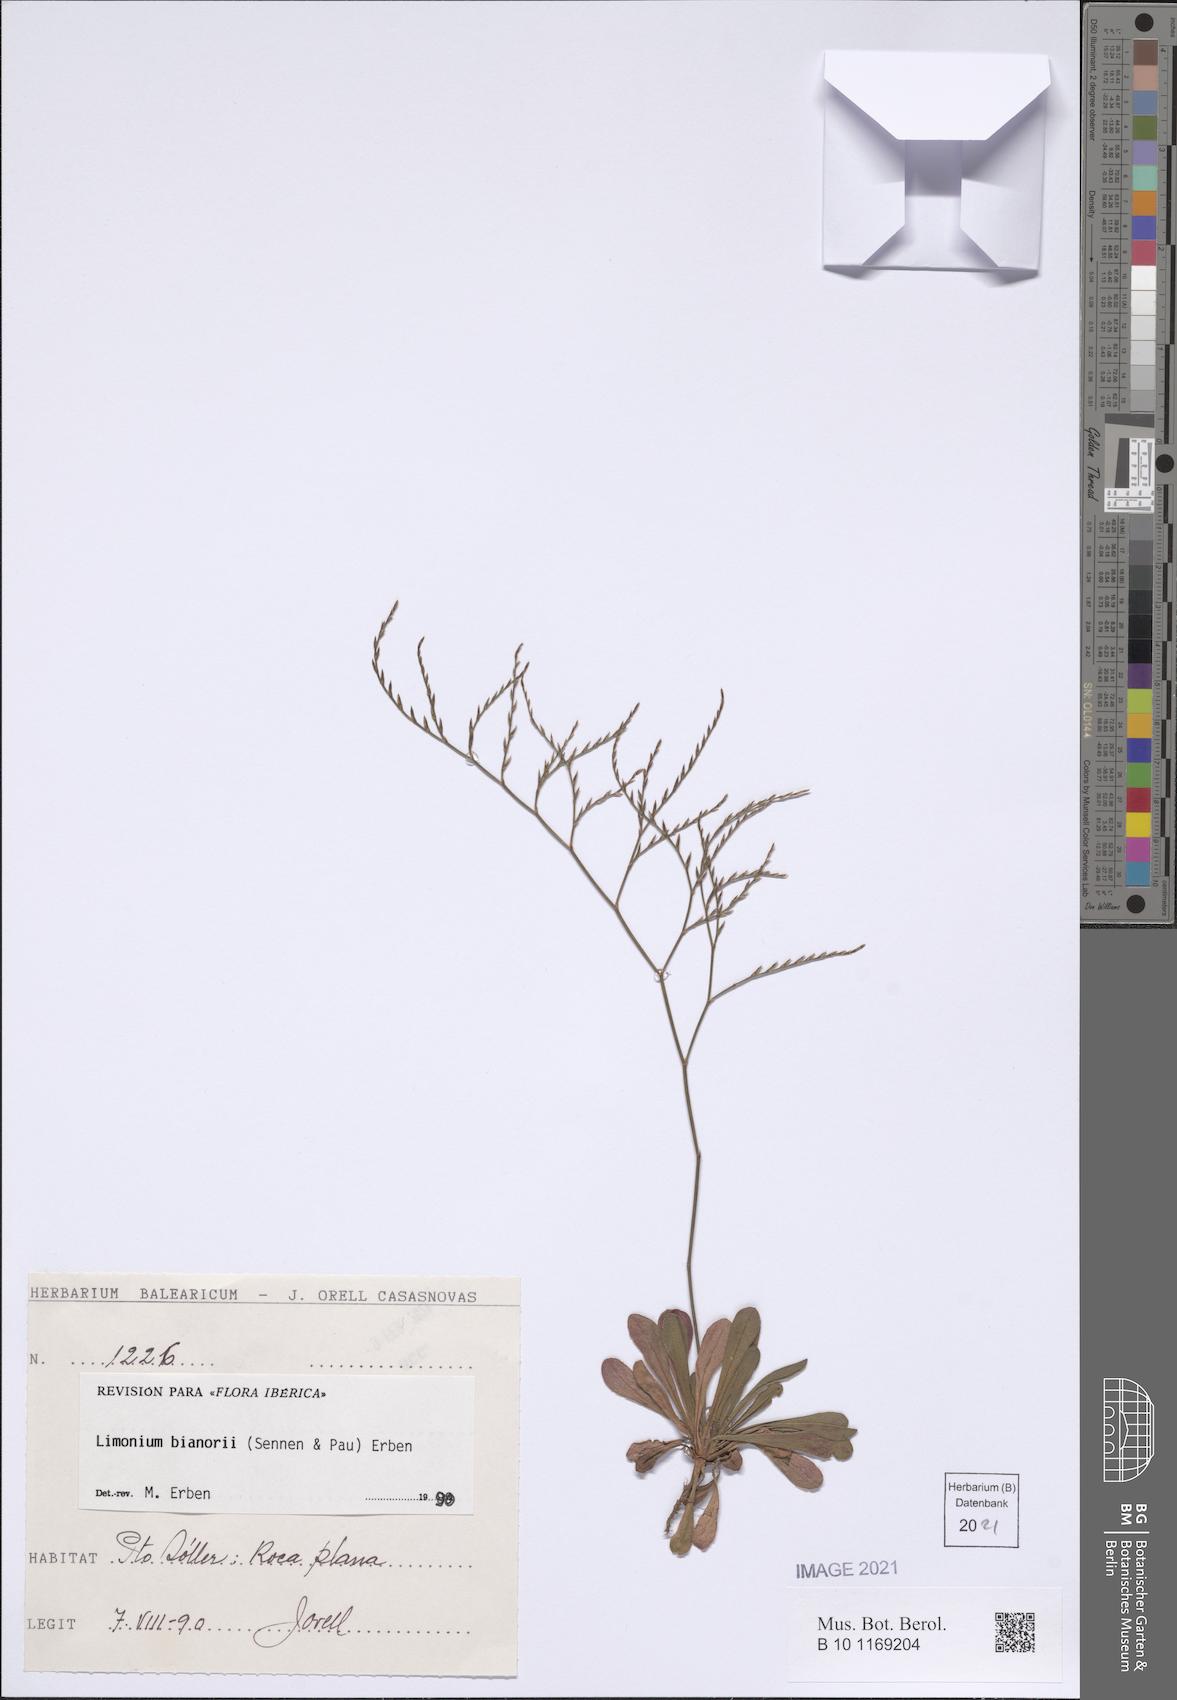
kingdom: Plantae
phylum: Tracheophyta
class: Magnoliopsida
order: Caryophyllales
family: Plumbaginaceae
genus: Limonium
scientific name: Limonium bianorii
